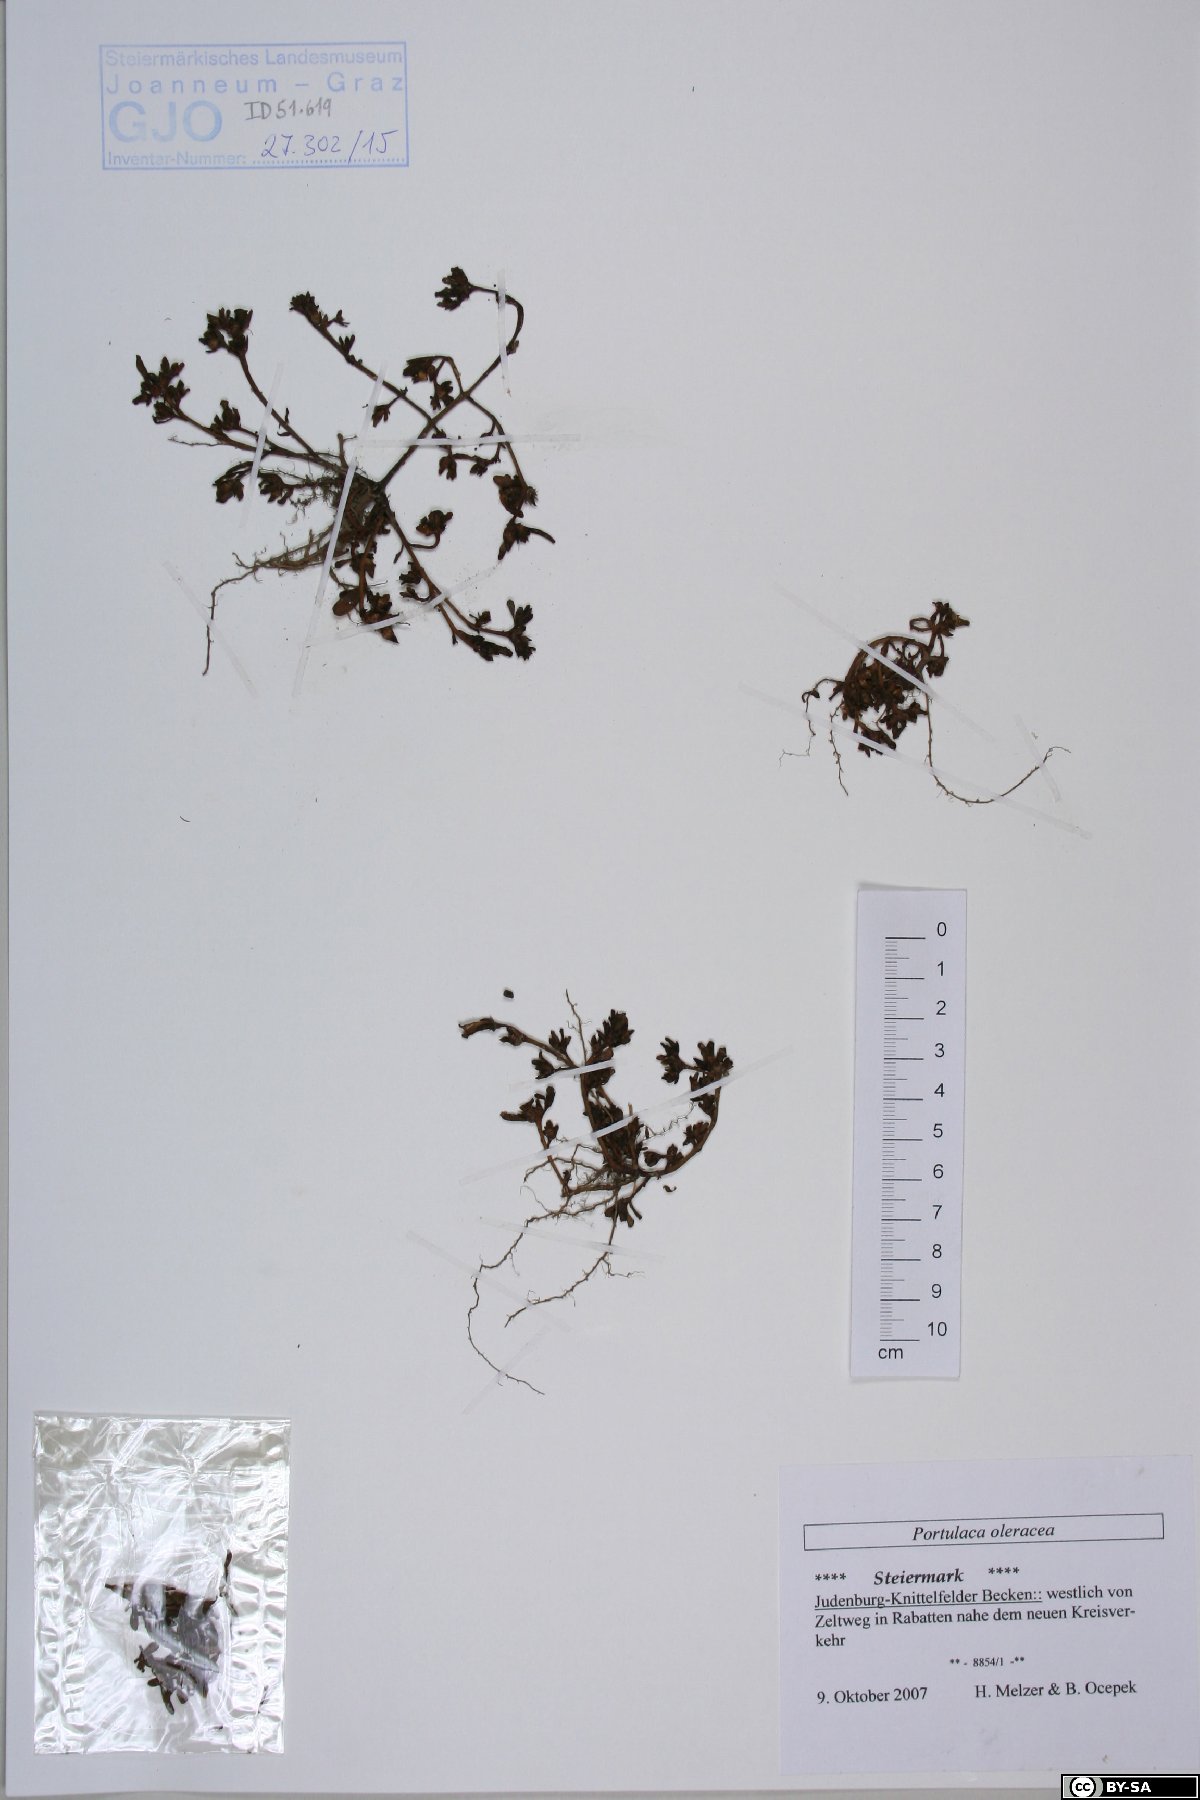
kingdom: Plantae
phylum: Tracheophyta
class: Magnoliopsida
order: Caryophyllales
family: Portulacaceae
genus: Portulaca
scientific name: Portulaca oleracea
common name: Common purslane
